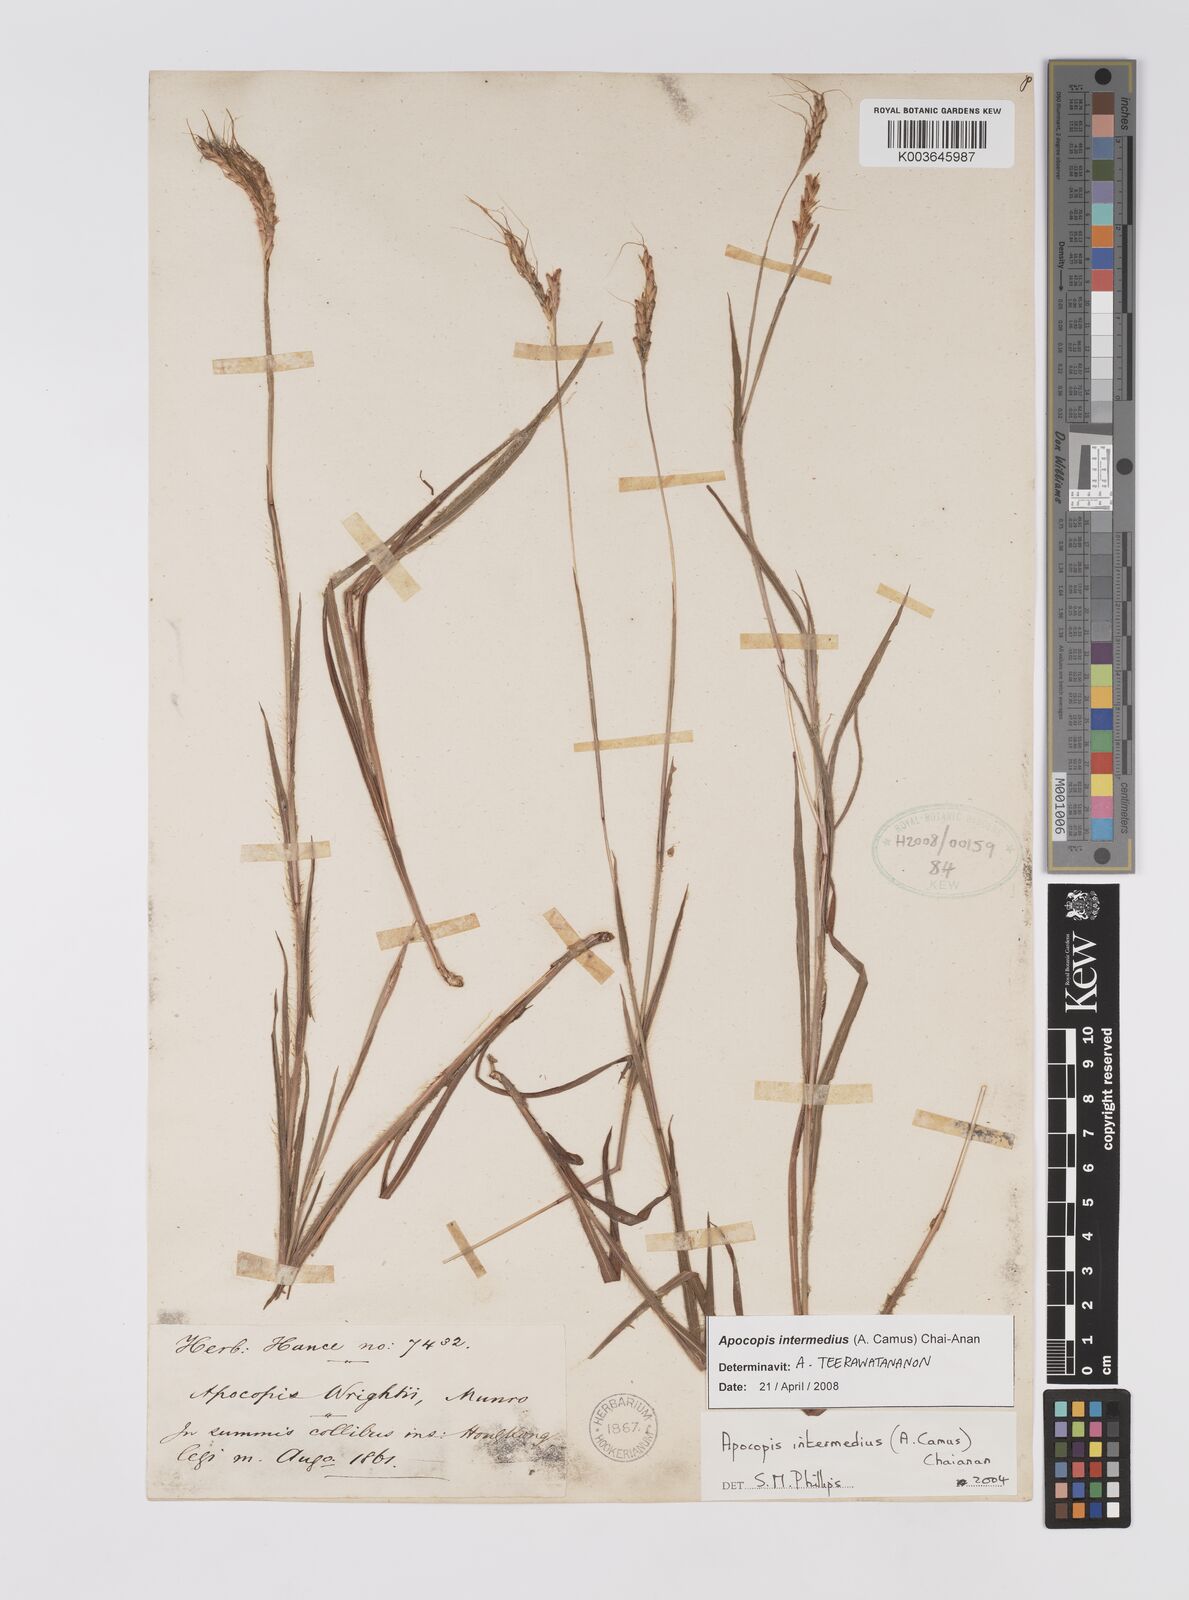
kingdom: Plantae
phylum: Tracheophyta
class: Liliopsida
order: Poales
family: Poaceae
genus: Apocopis
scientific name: Apocopis intermedius
